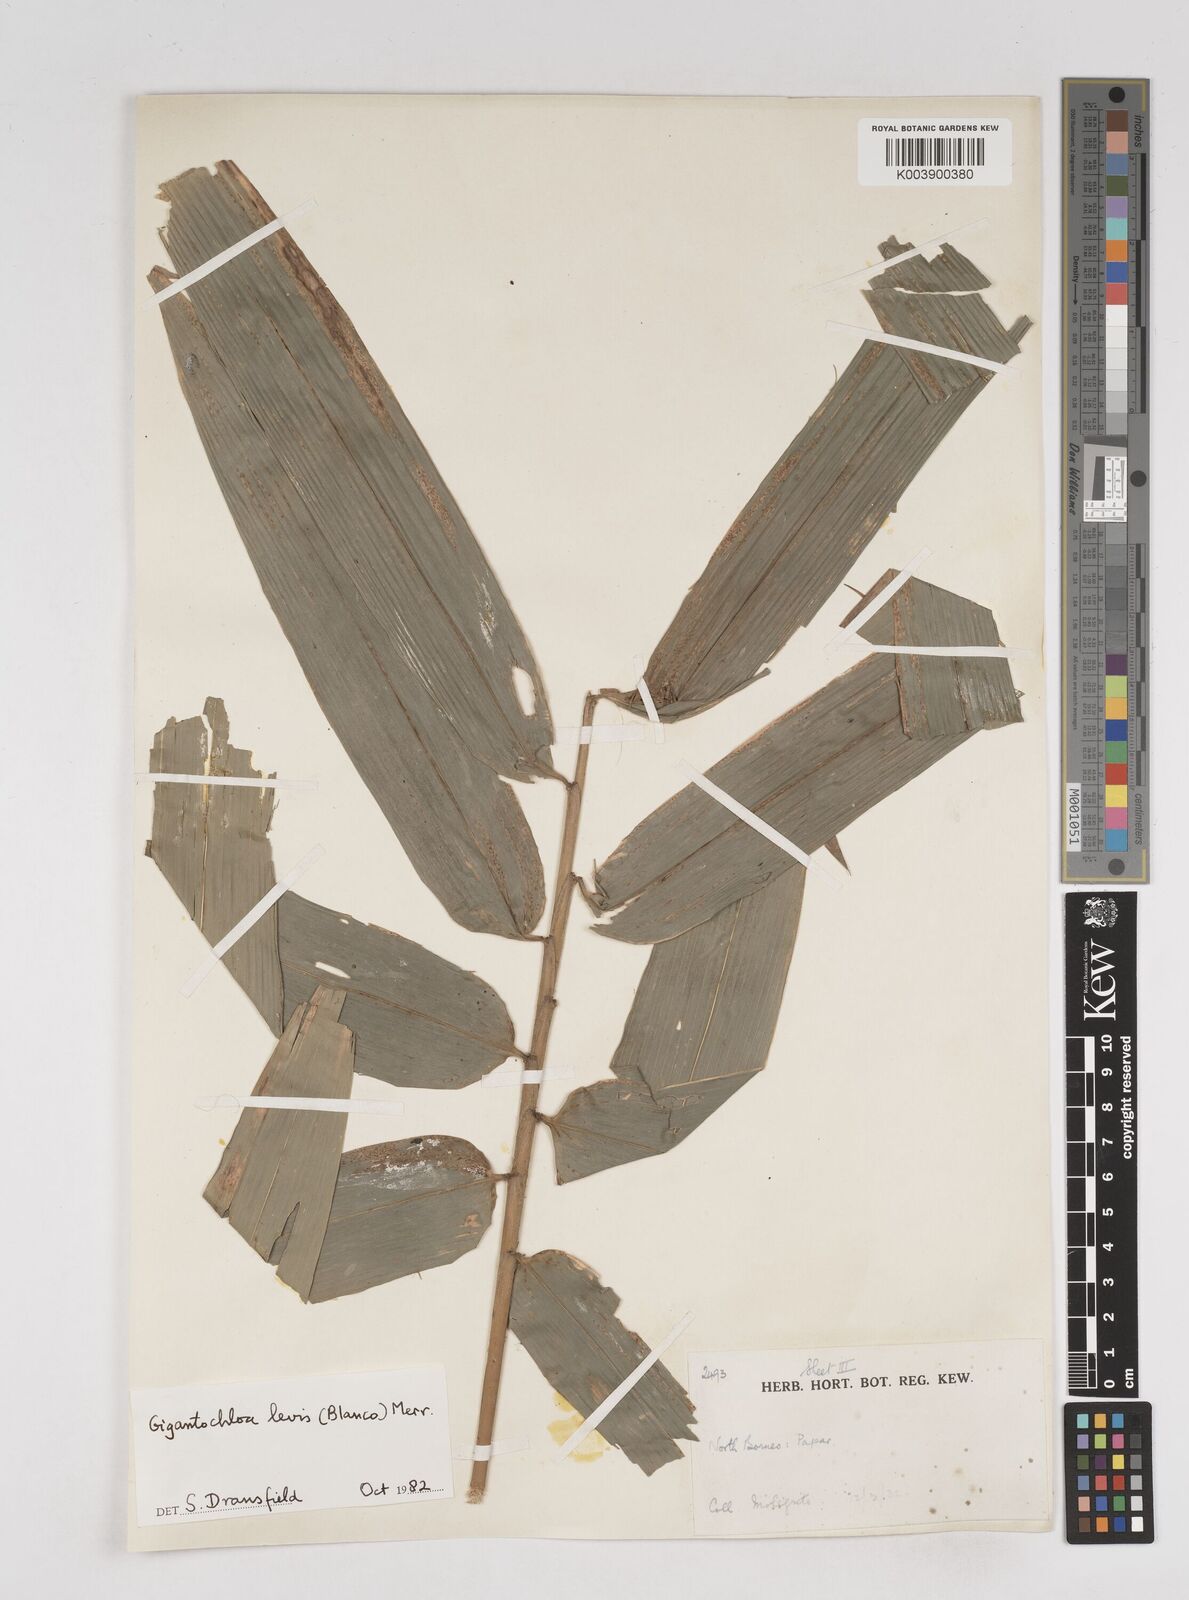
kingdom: Plantae
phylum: Tracheophyta
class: Liliopsida
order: Poales
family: Poaceae
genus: Gigantochloa
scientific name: Gigantochloa levis
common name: Smooth-shoot gigantochloa
